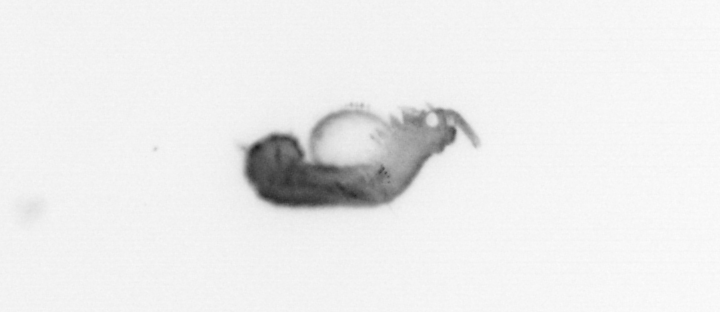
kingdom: Animalia
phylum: Annelida
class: Polychaeta
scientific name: Polychaeta
